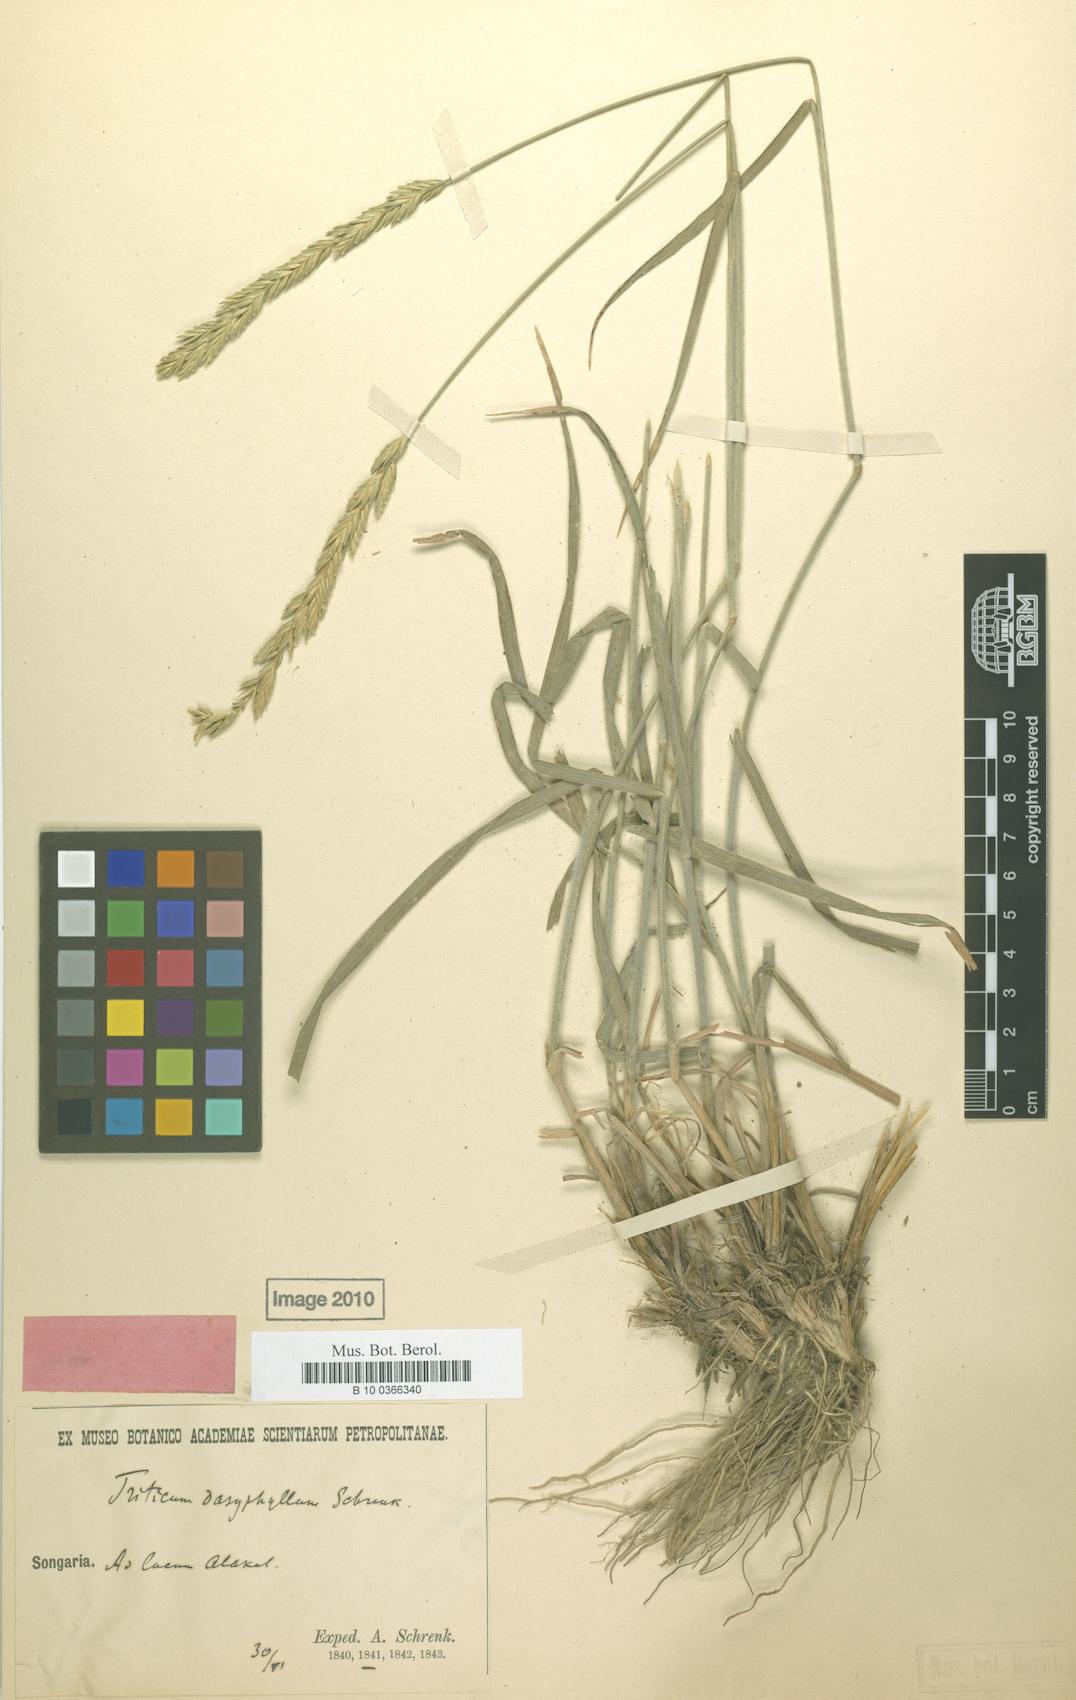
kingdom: Plantae
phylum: Tracheophyta
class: Liliopsida
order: Poales
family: Poaceae
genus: Agropyron
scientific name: Agropyron
